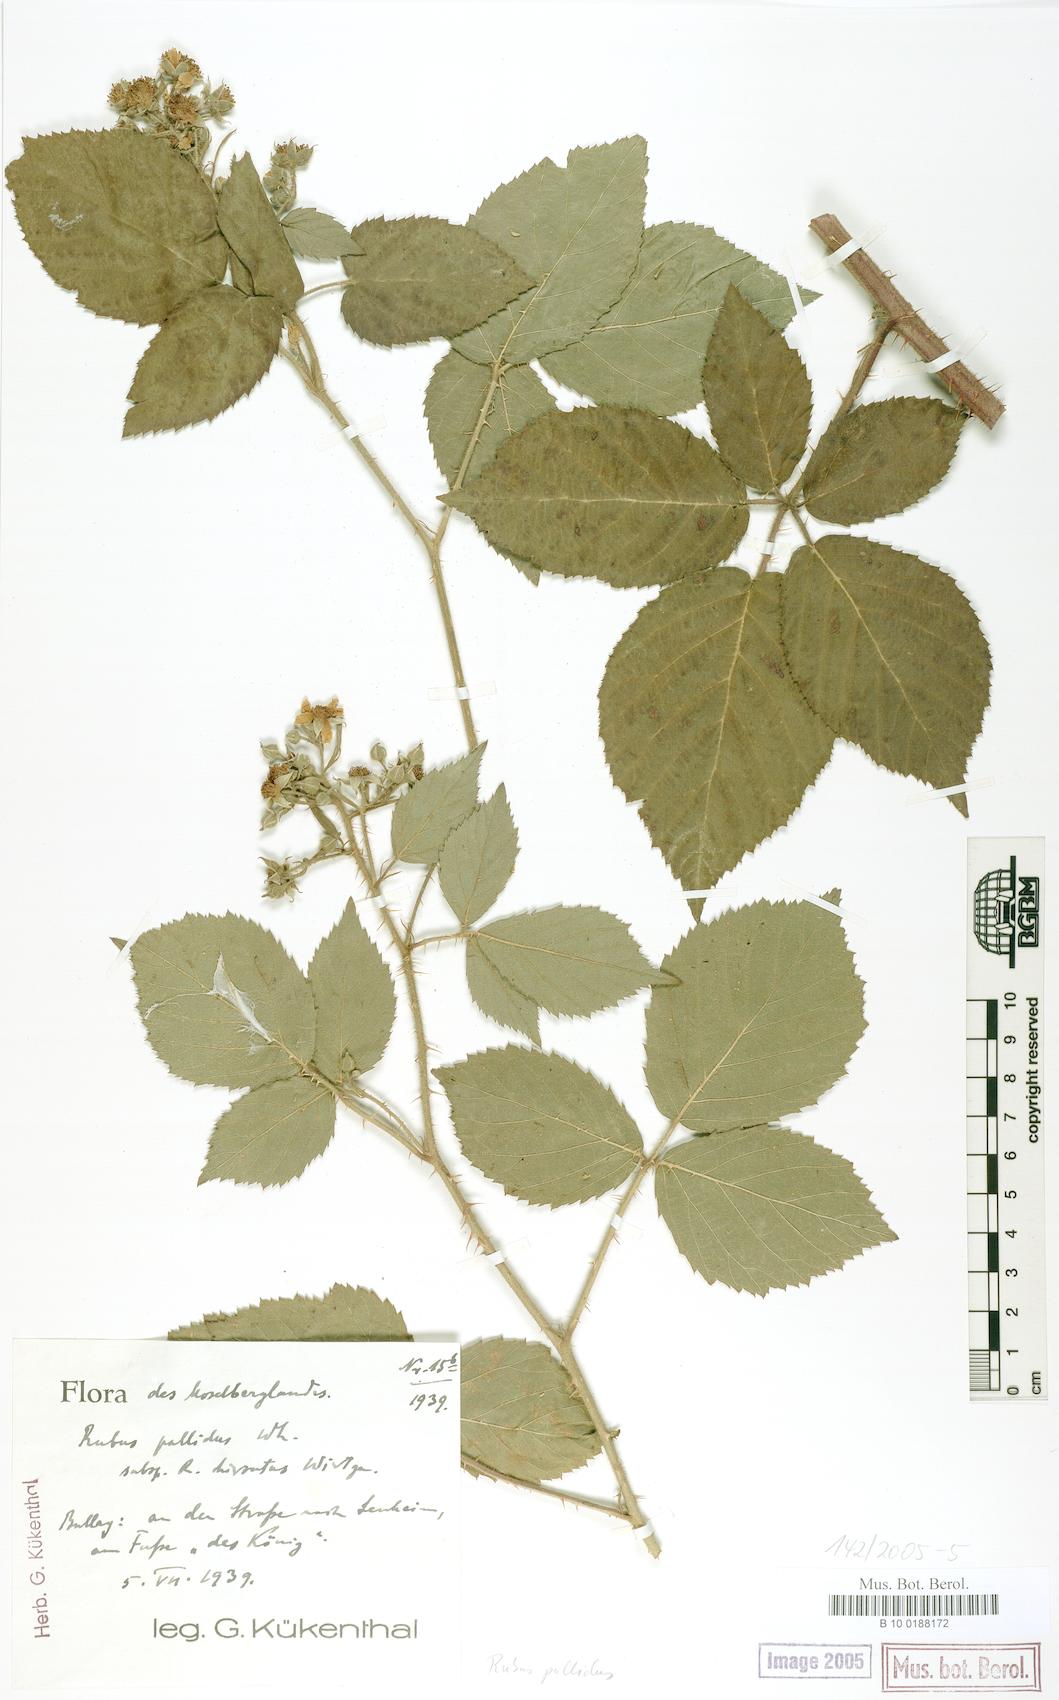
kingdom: Plantae
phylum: Tracheophyta
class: Magnoliopsida
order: Rosales
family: Rosaceae
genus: Rubus
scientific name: Rubus pallidus
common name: Pale bramble
